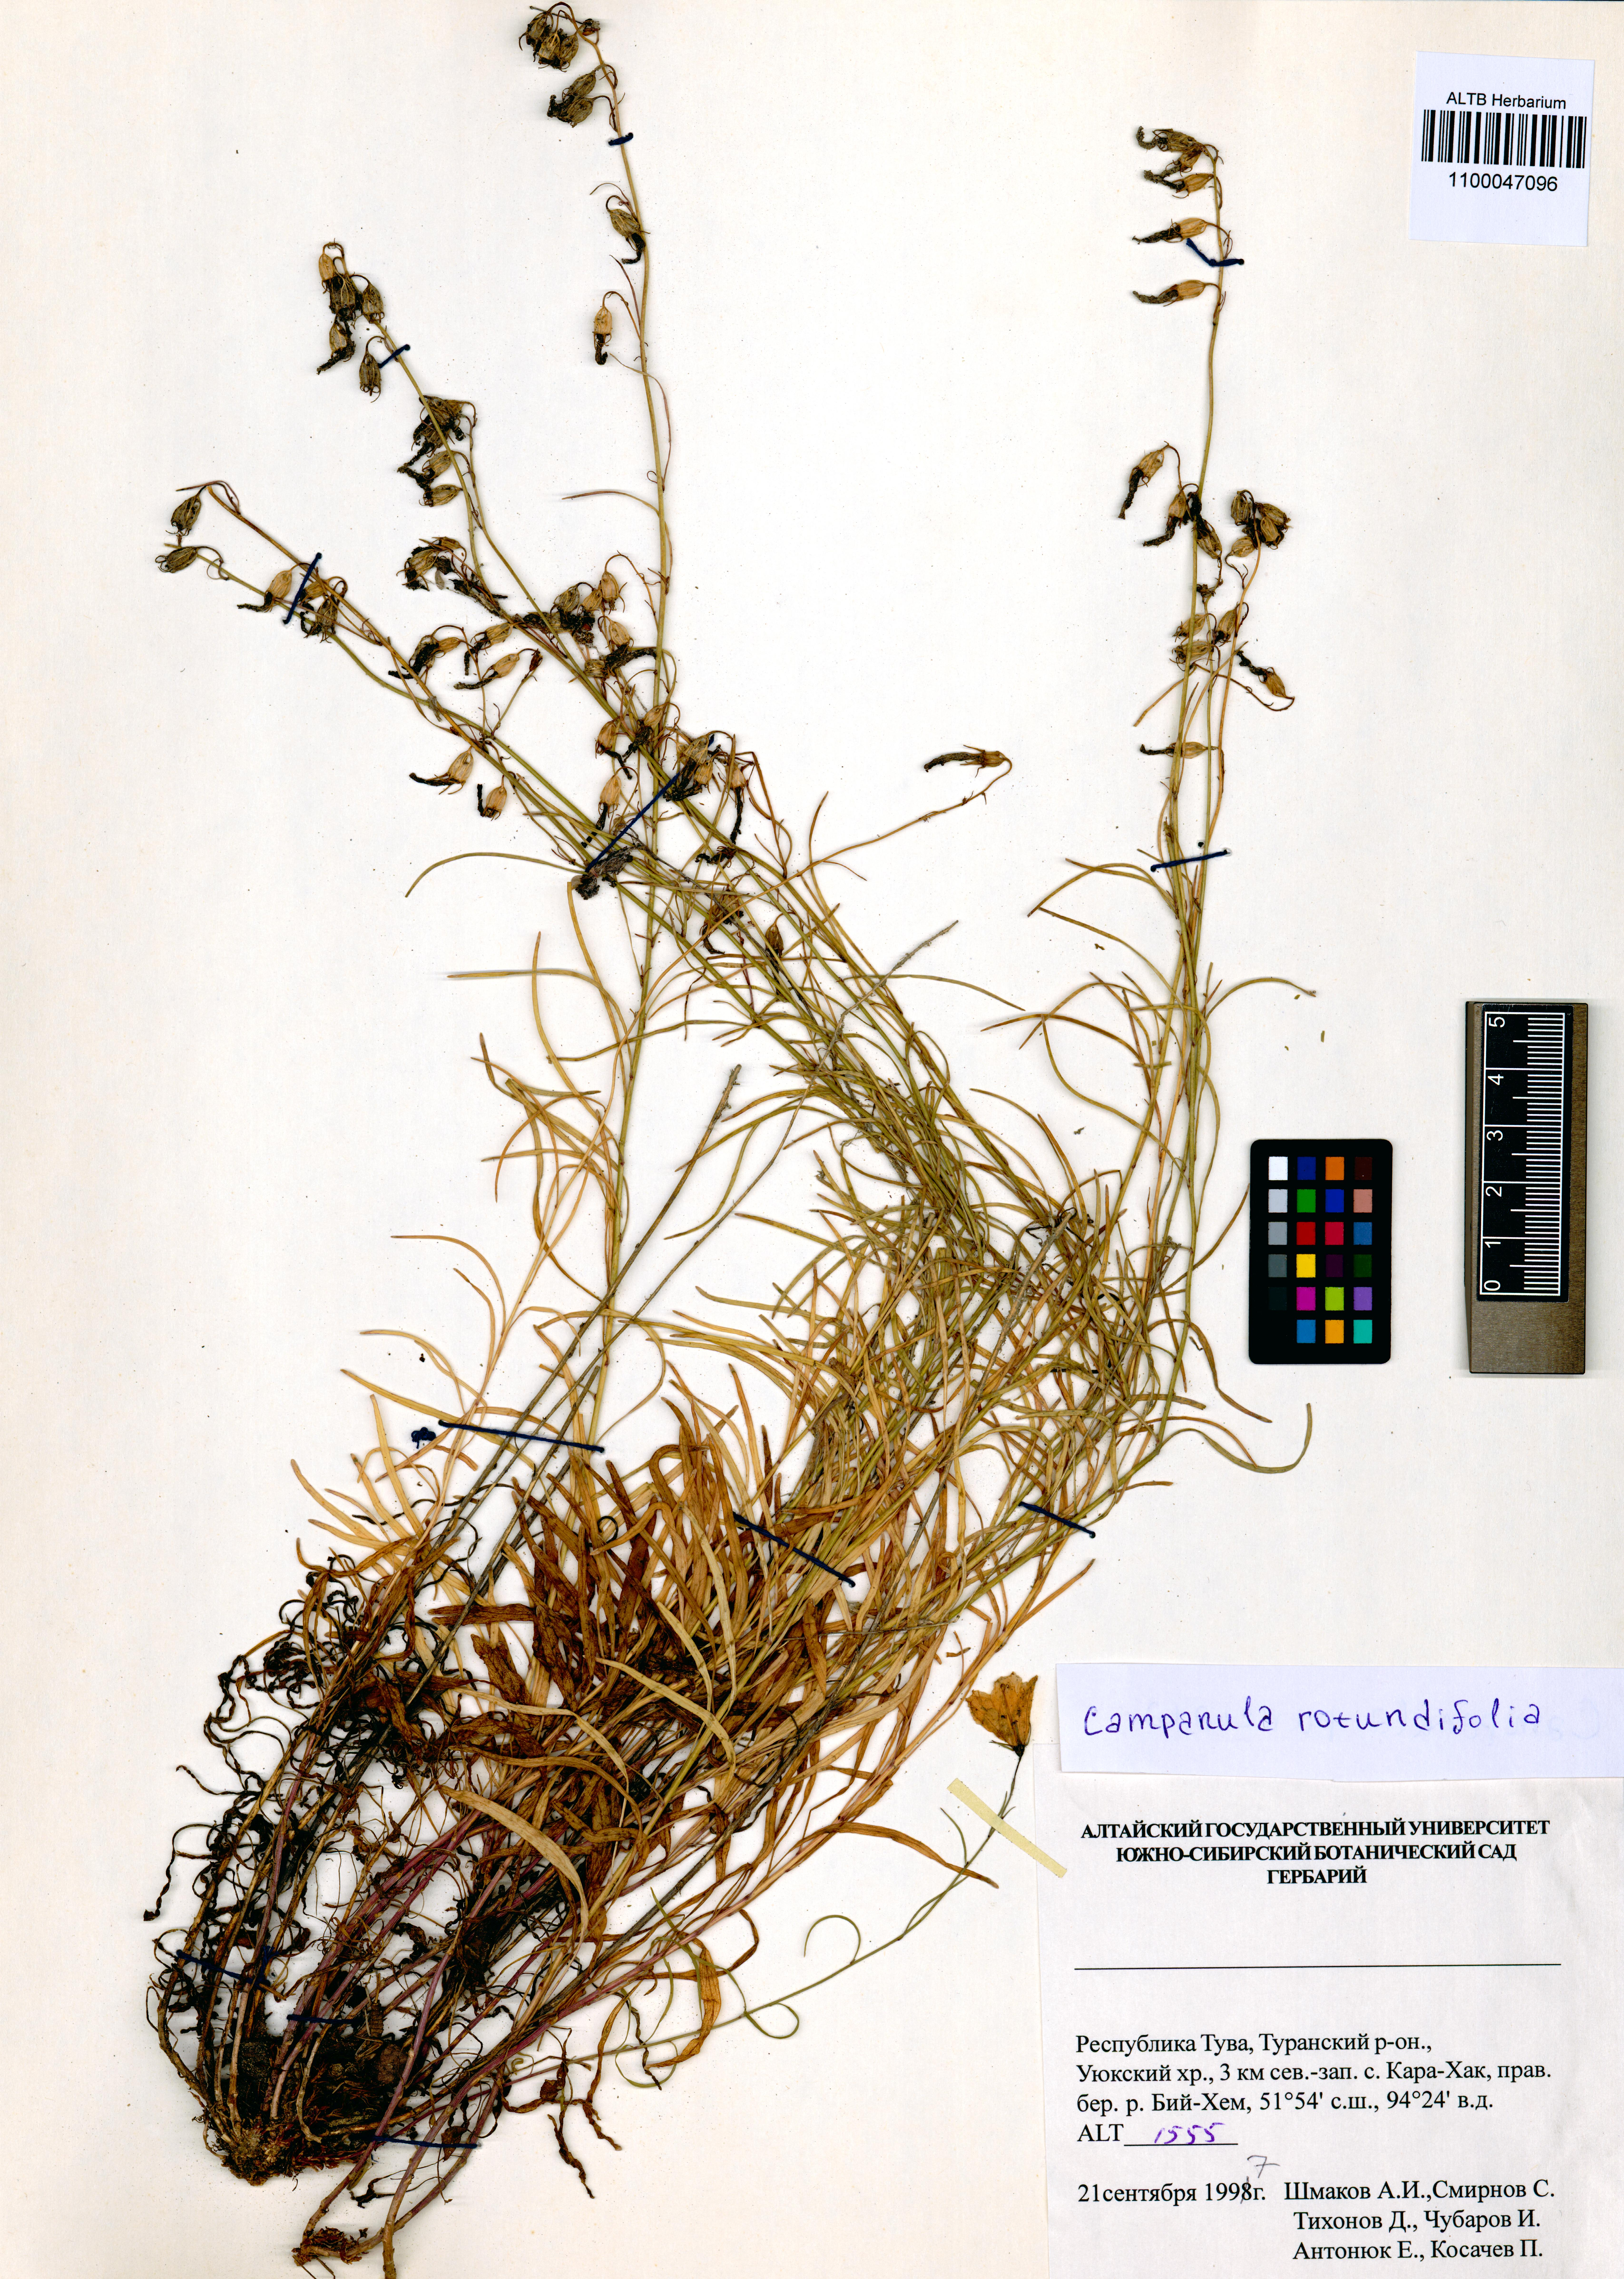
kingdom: Plantae
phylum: Tracheophyta
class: Magnoliopsida
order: Asterales
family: Campanulaceae
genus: Campanula
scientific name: Campanula rotundifolia
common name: Harebell
